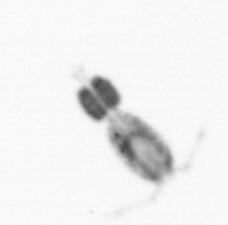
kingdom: Animalia
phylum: Arthropoda
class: Copepoda
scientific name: Copepoda
